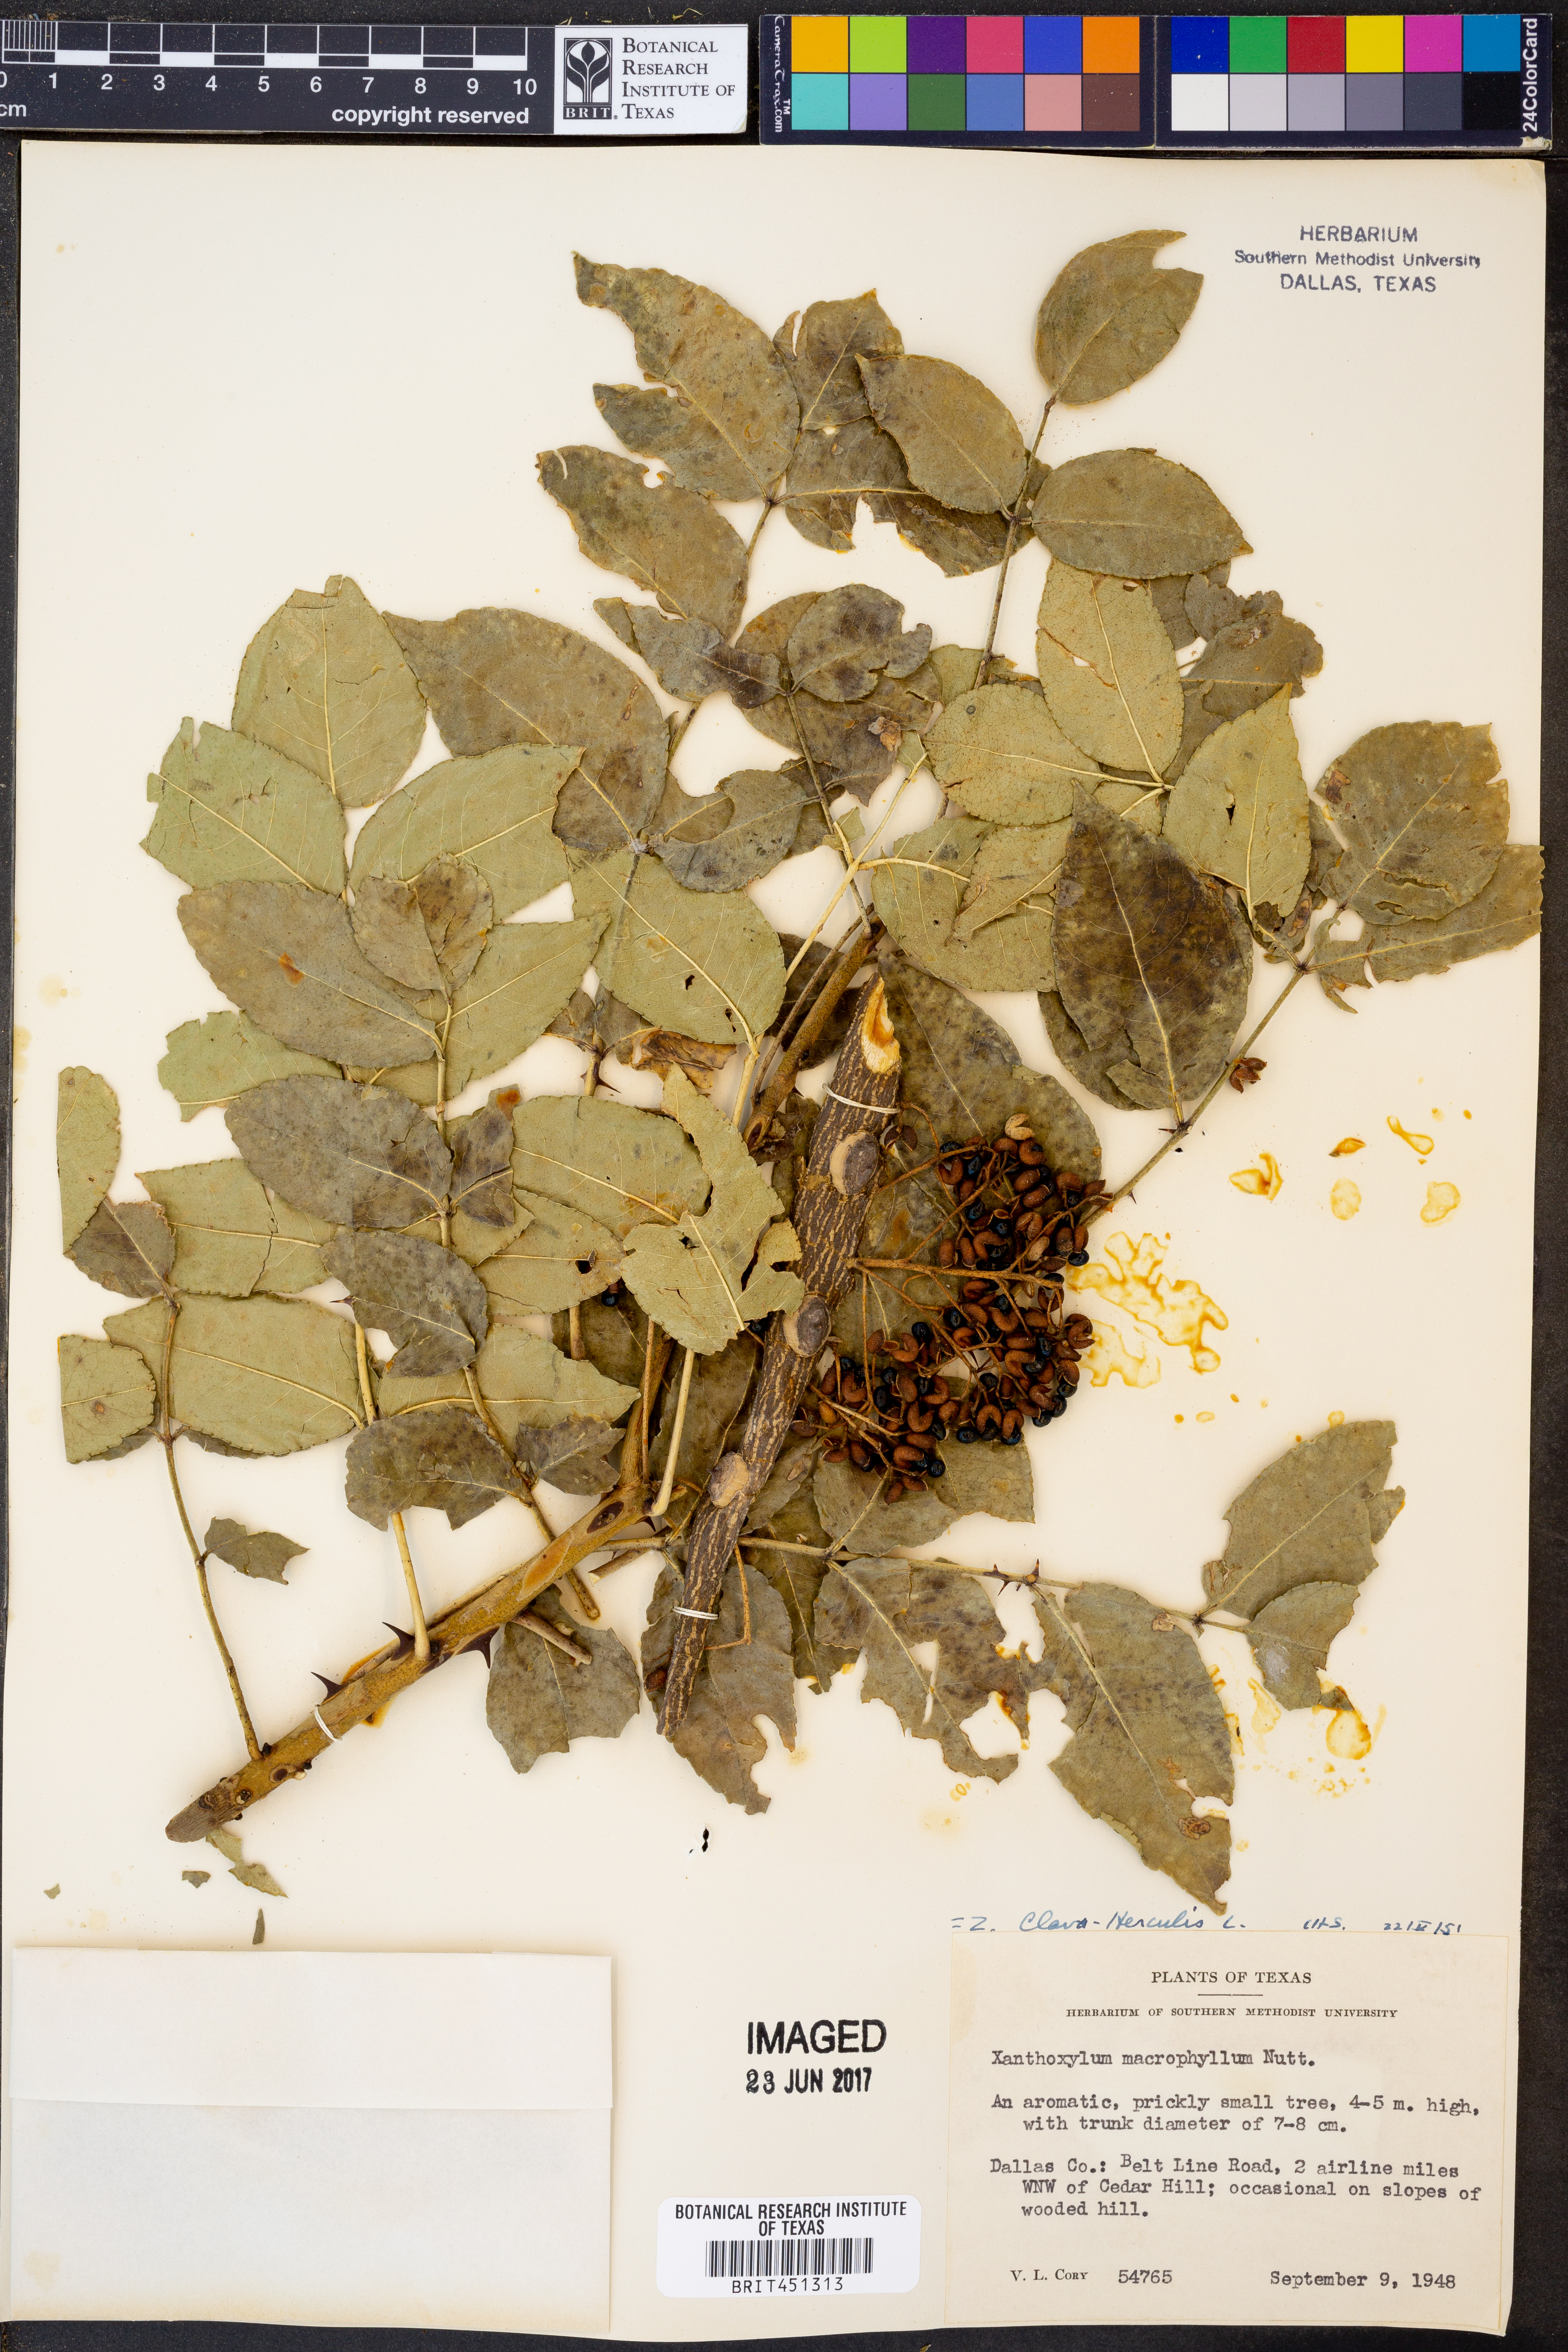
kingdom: Plantae
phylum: Tracheophyta
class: Magnoliopsida
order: Sapindales
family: Rutaceae
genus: Zanthoxylum
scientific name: Zanthoxylum gilletii
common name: African satinwood
